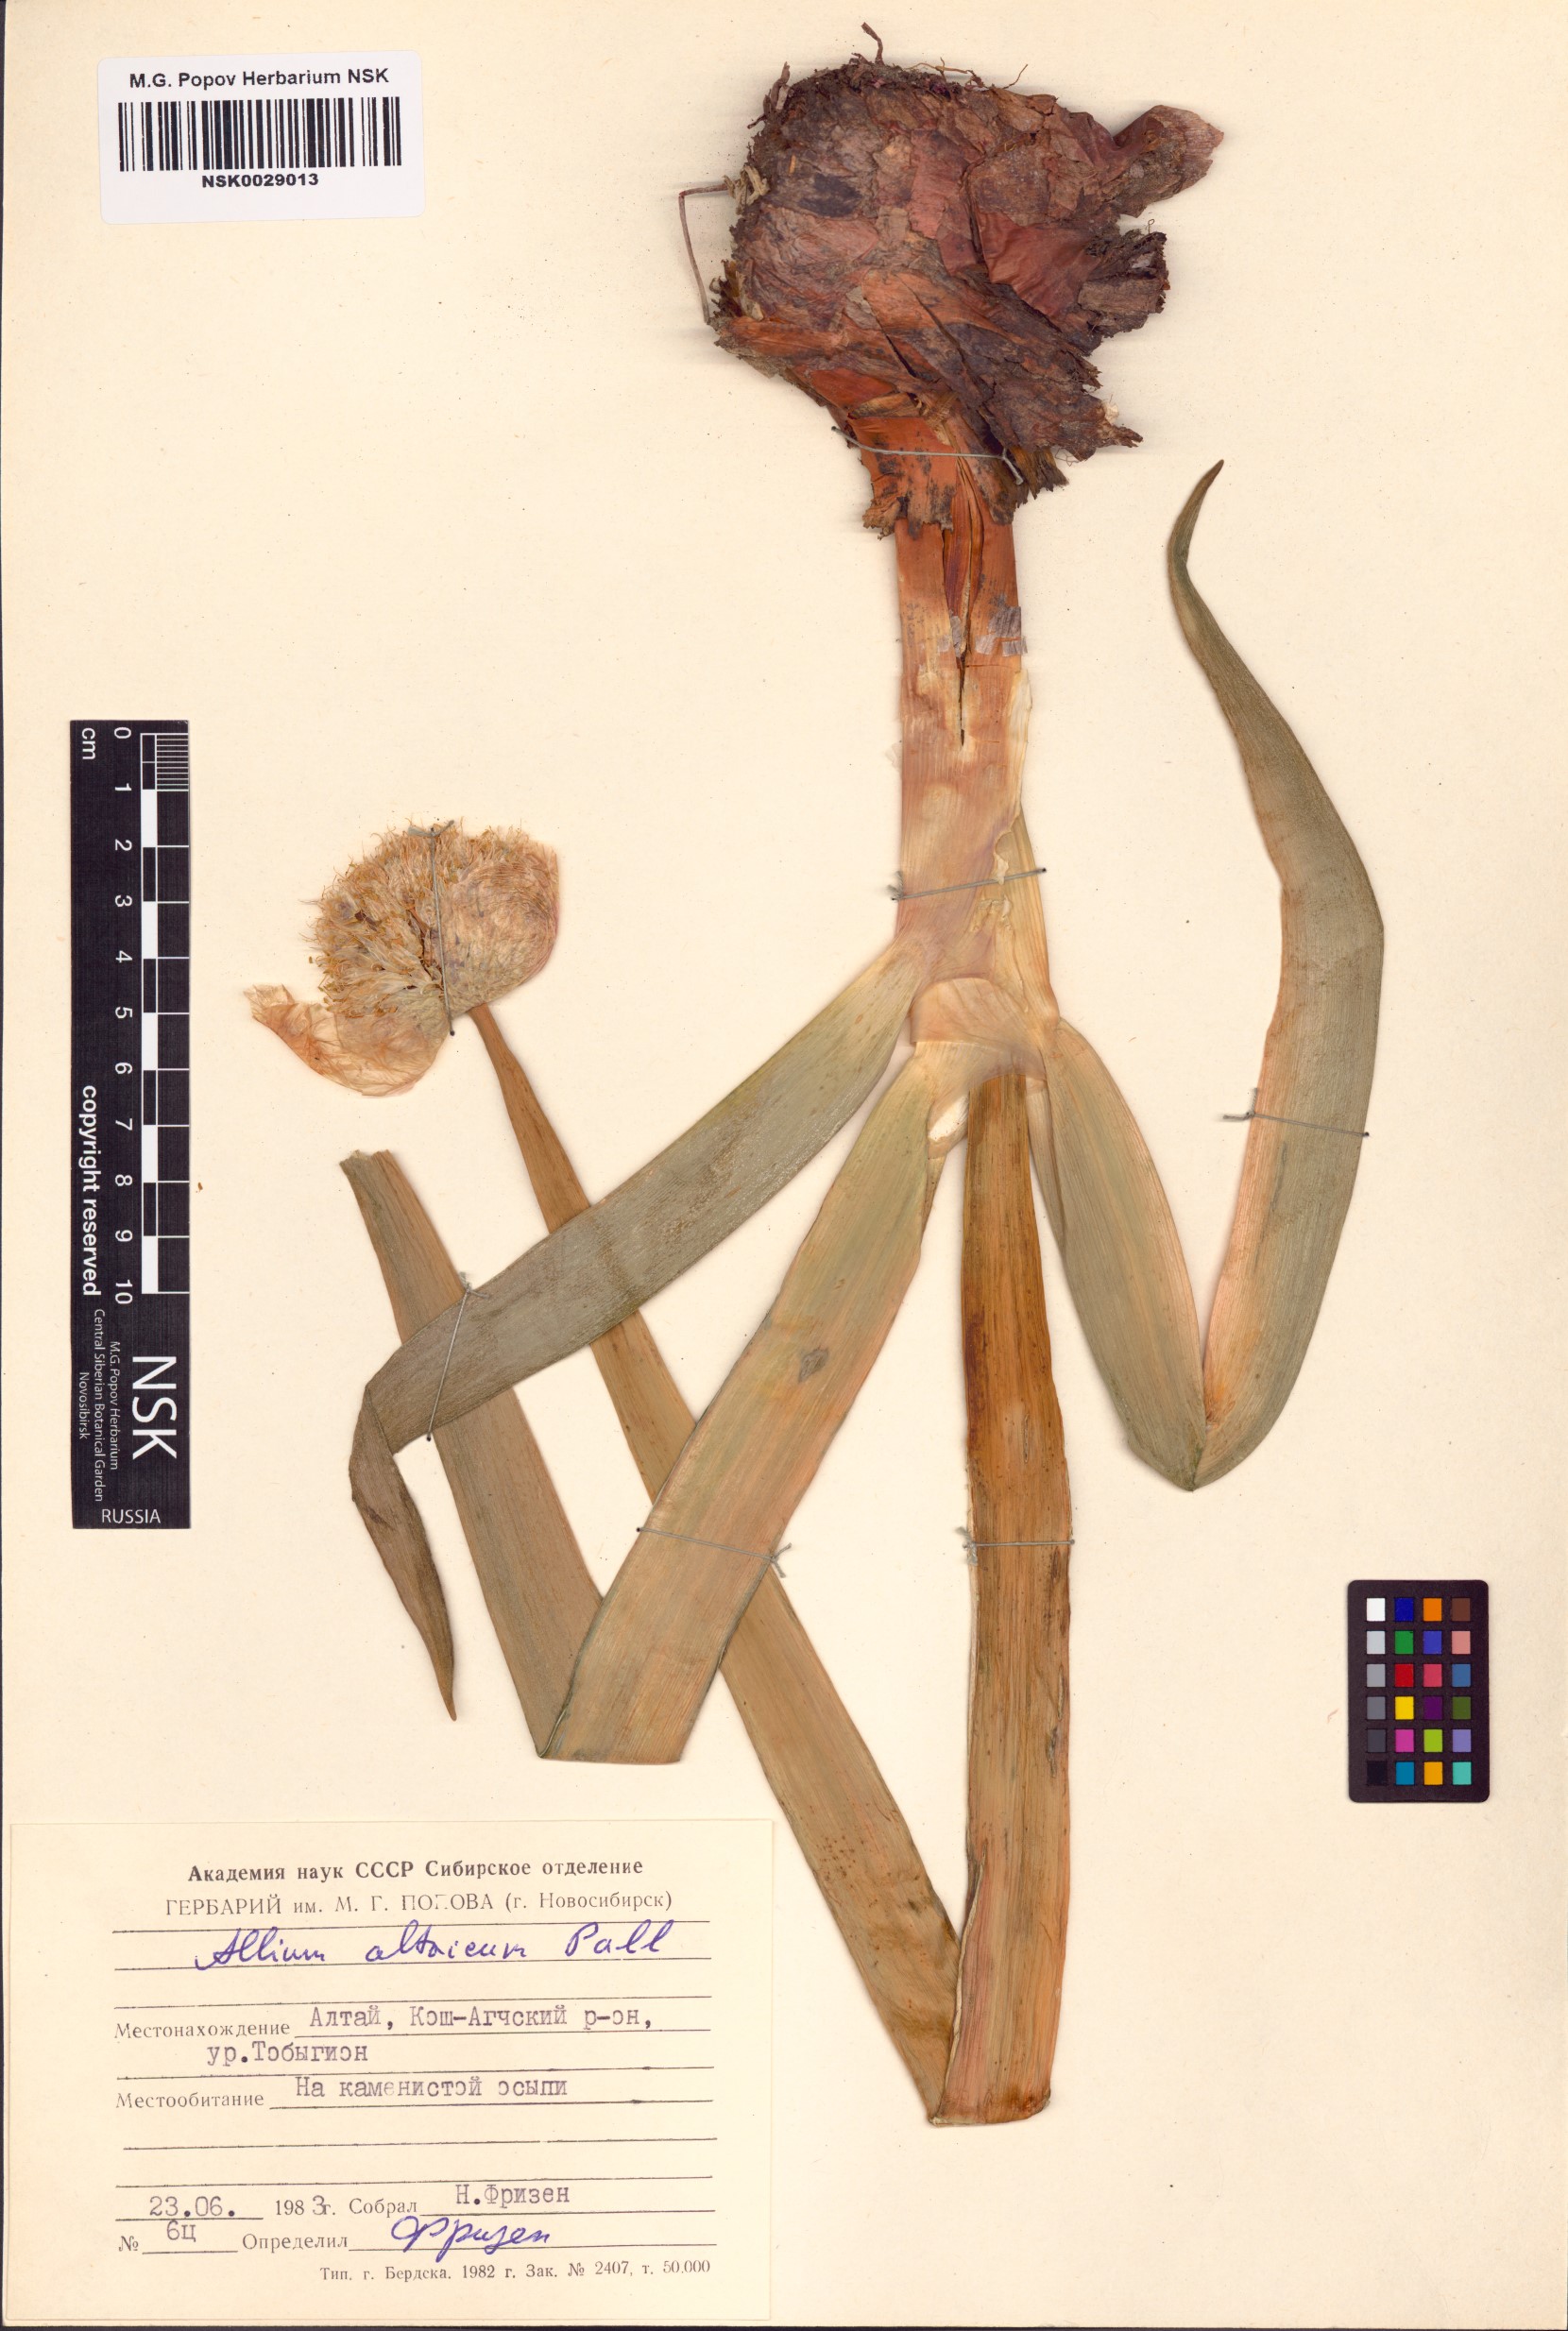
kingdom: Plantae
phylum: Tracheophyta
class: Liliopsida
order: Asparagales
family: Amaryllidaceae
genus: Allium
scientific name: Allium altaicum
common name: Altai onion
